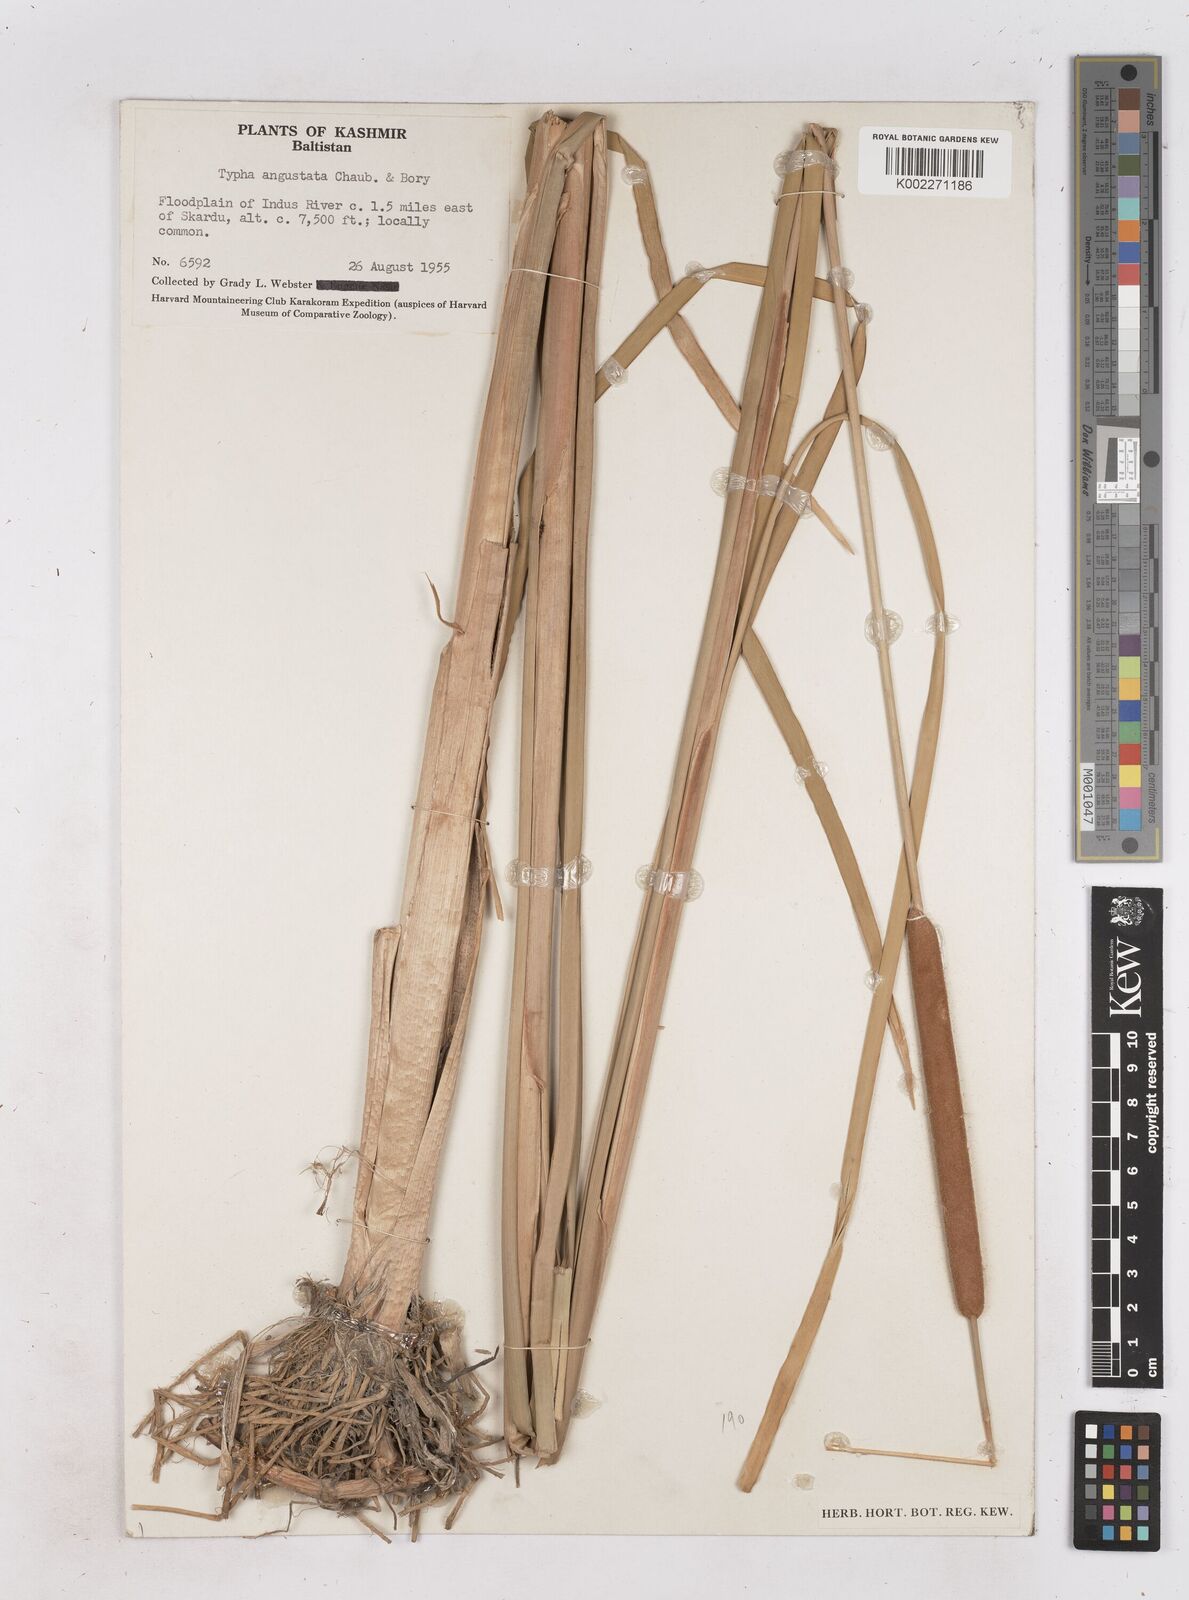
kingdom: Plantae
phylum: Tracheophyta
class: Liliopsida
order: Poales
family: Typhaceae
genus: Typha
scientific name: Typha domingensis
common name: Southern cattail
